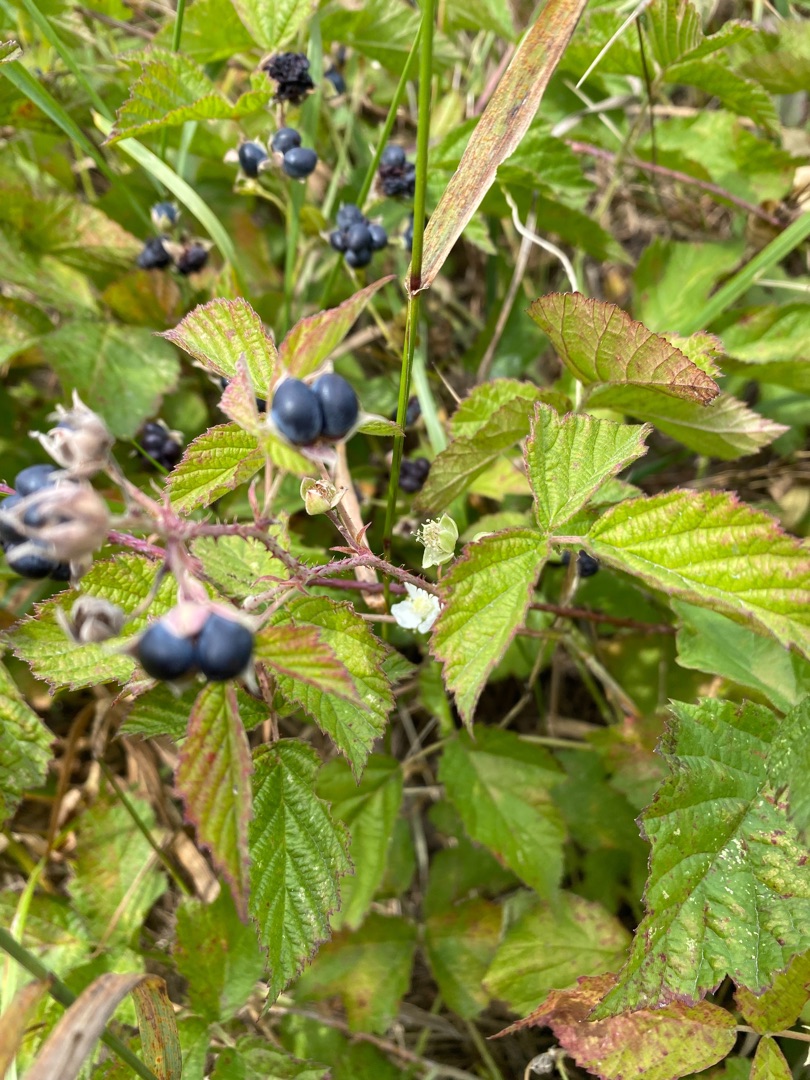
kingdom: Plantae
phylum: Tracheophyta
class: Magnoliopsida
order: Rosales
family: Rosaceae
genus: Rubus
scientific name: Rubus caesius
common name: Korbær
